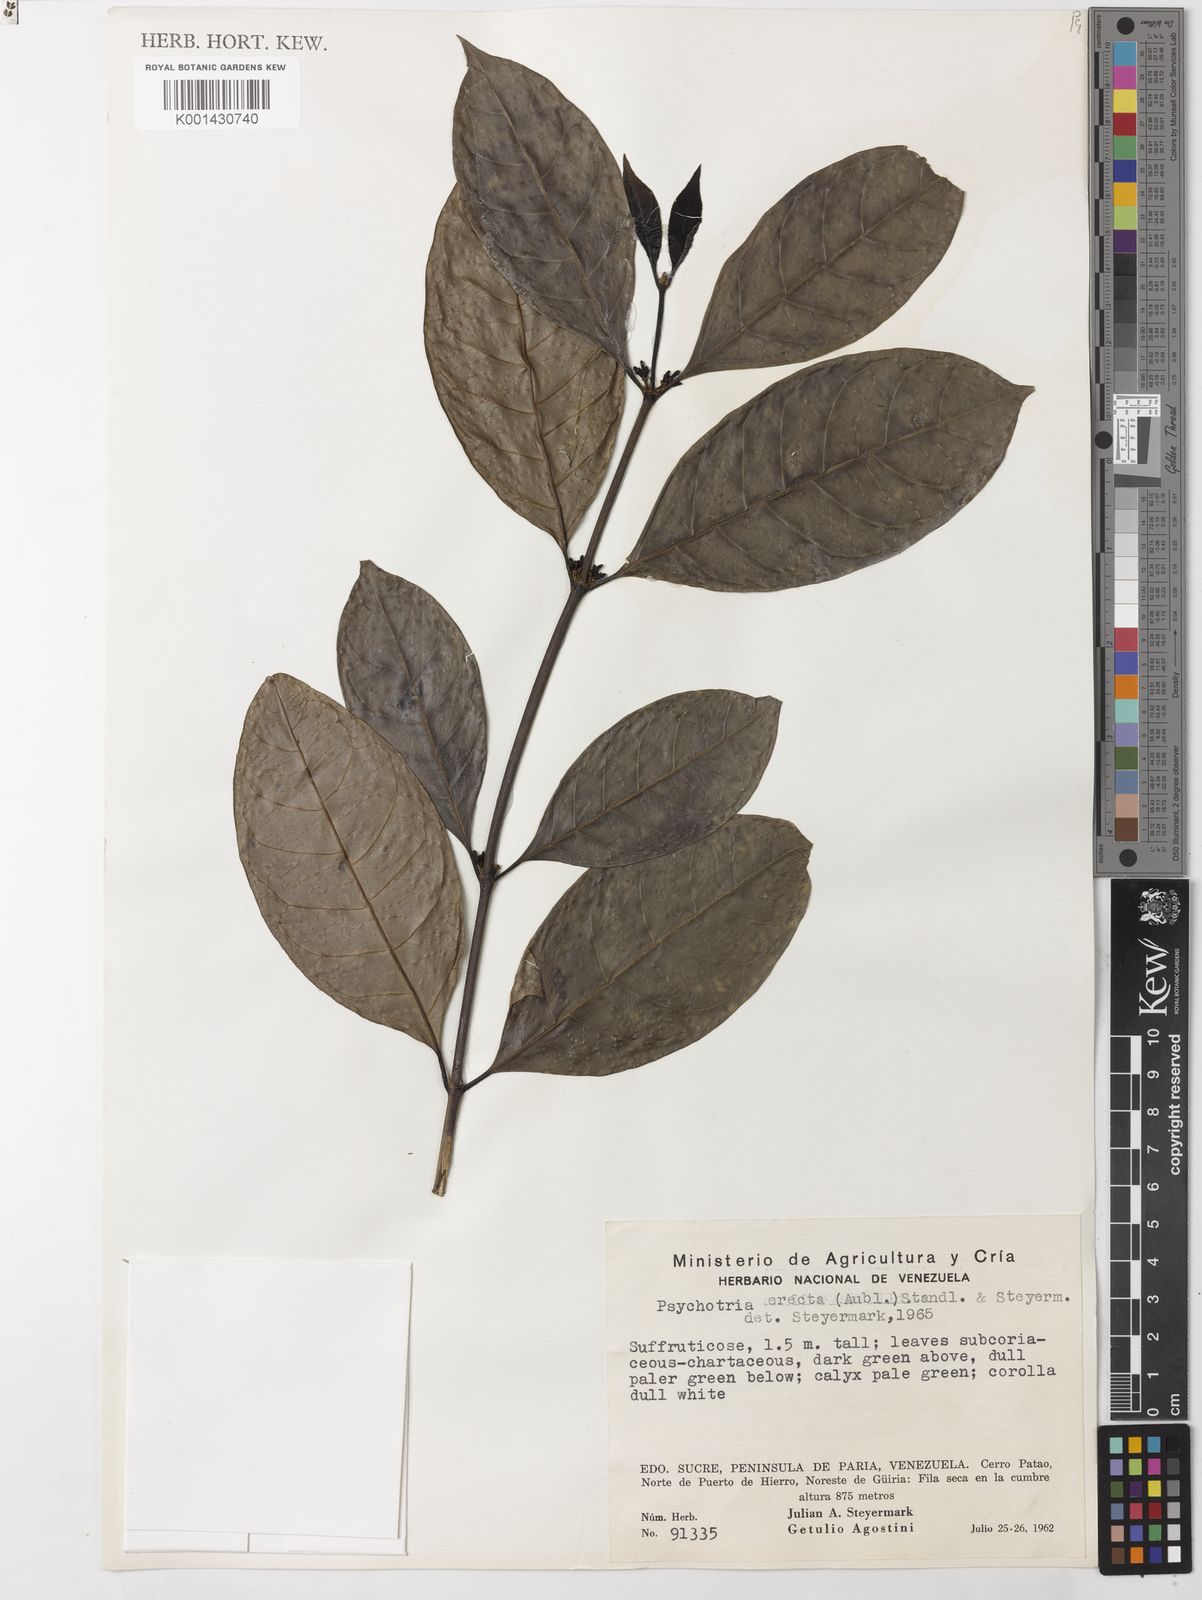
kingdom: Plantae
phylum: Tracheophyta
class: Magnoliopsida
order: Gentianales
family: Rubiaceae
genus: Ronabea
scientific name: Ronabea latifolia
